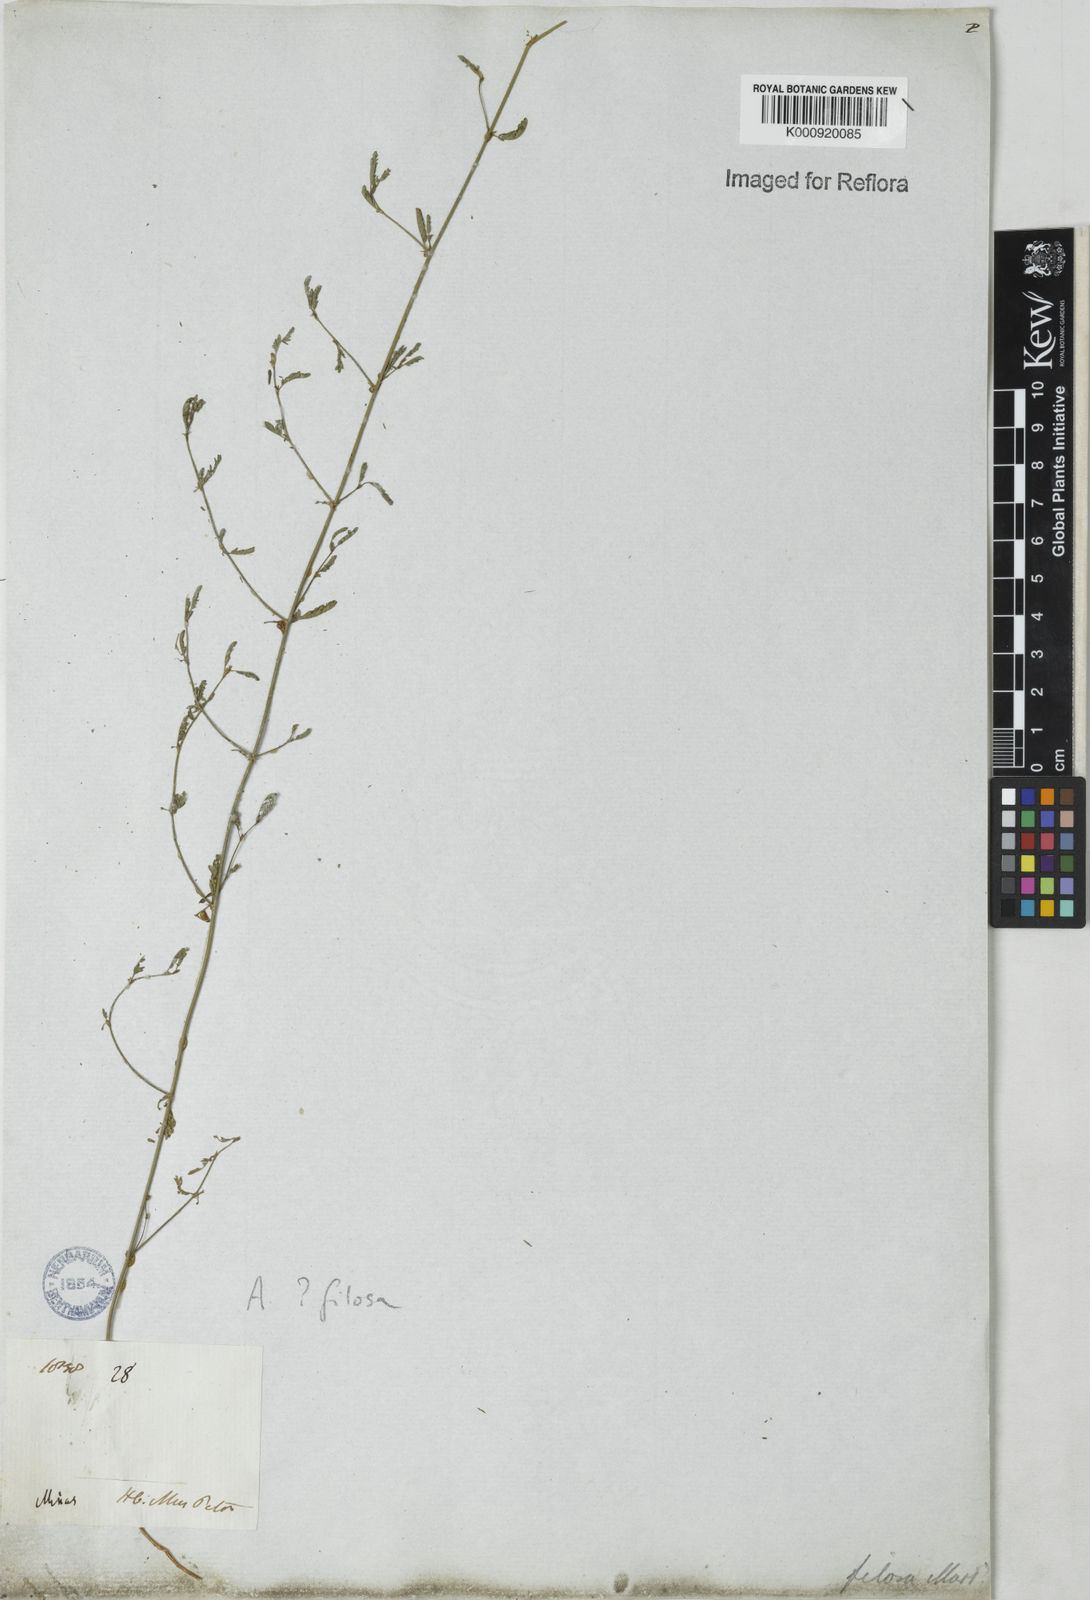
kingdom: Plantae
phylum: Tracheophyta
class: Magnoliopsida
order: Fabales
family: Fabaceae
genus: Aeschynomene
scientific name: Aeschynomene filosa
